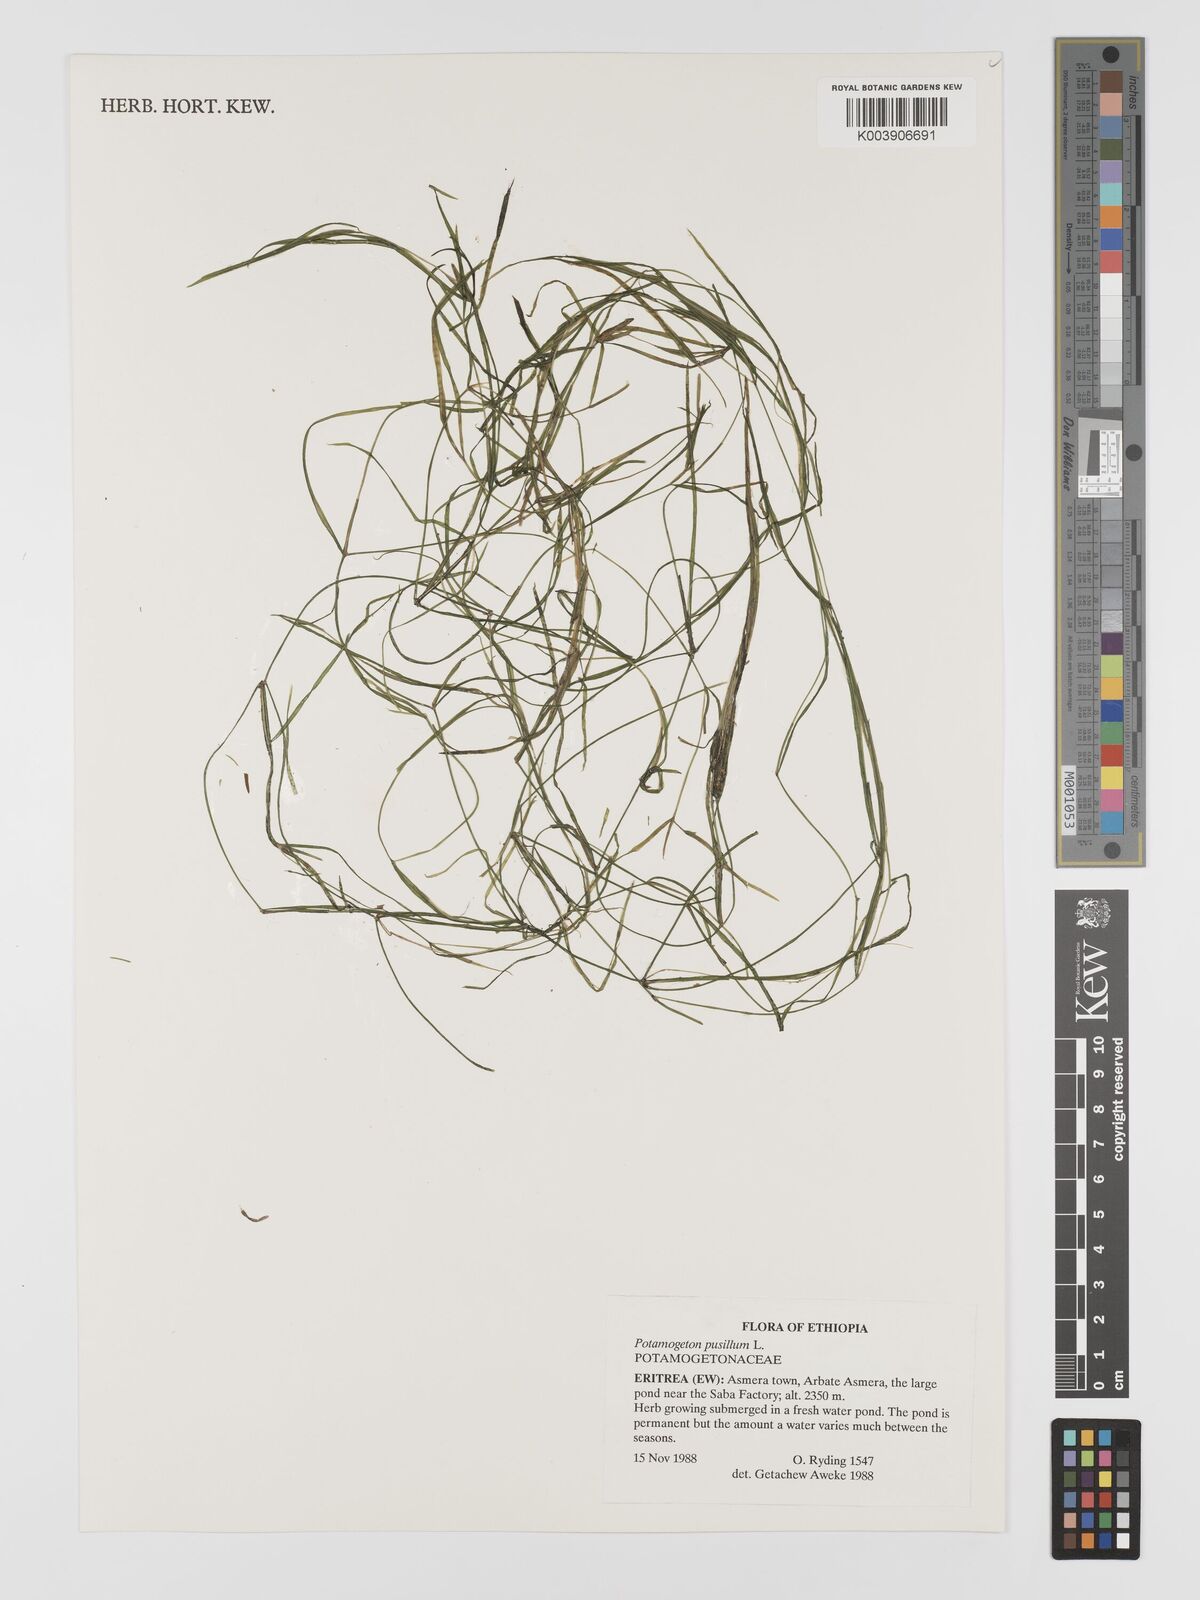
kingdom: Plantae
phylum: Tracheophyta
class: Liliopsida
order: Alismatales
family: Potamogetonaceae
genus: Potamogeton
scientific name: Potamogeton pusillus
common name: Lesser pondweed
